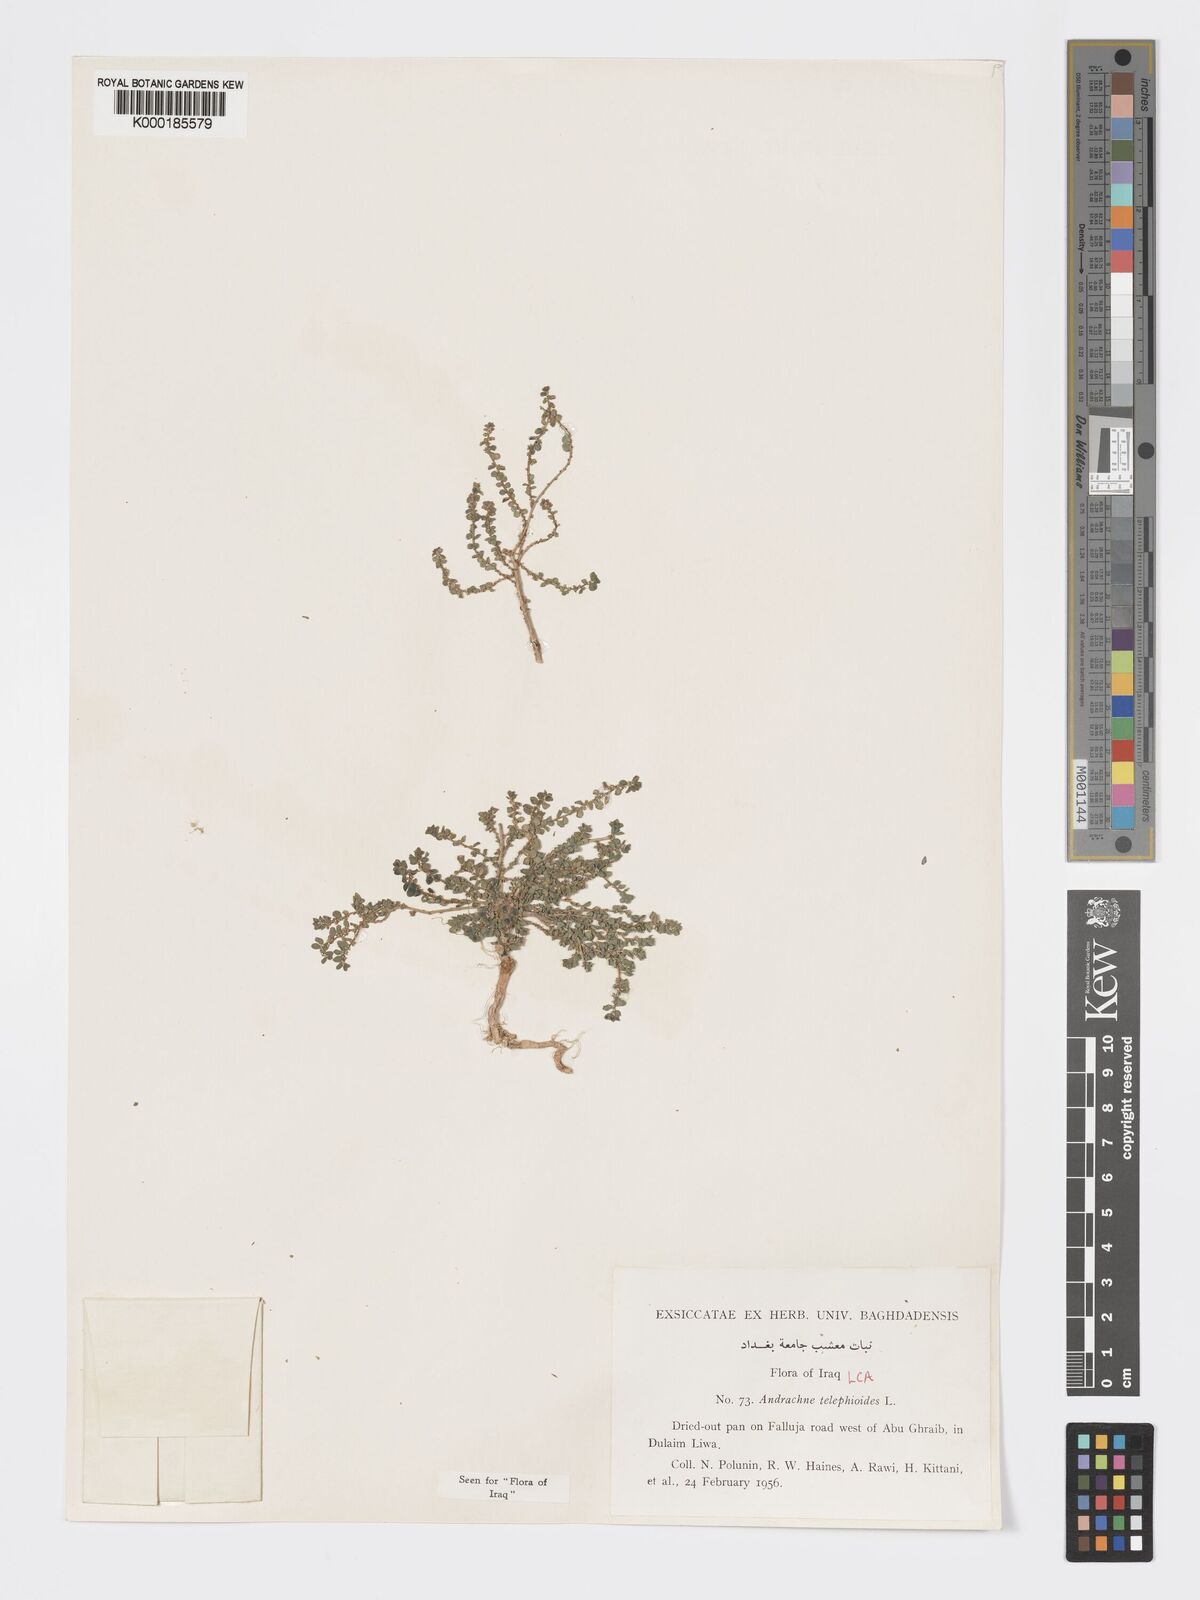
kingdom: Plantae
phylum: Tracheophyta
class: Magnoliopsida
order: Malpighiales
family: Phyllanthaceae
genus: Andrachne
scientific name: Andrachne
